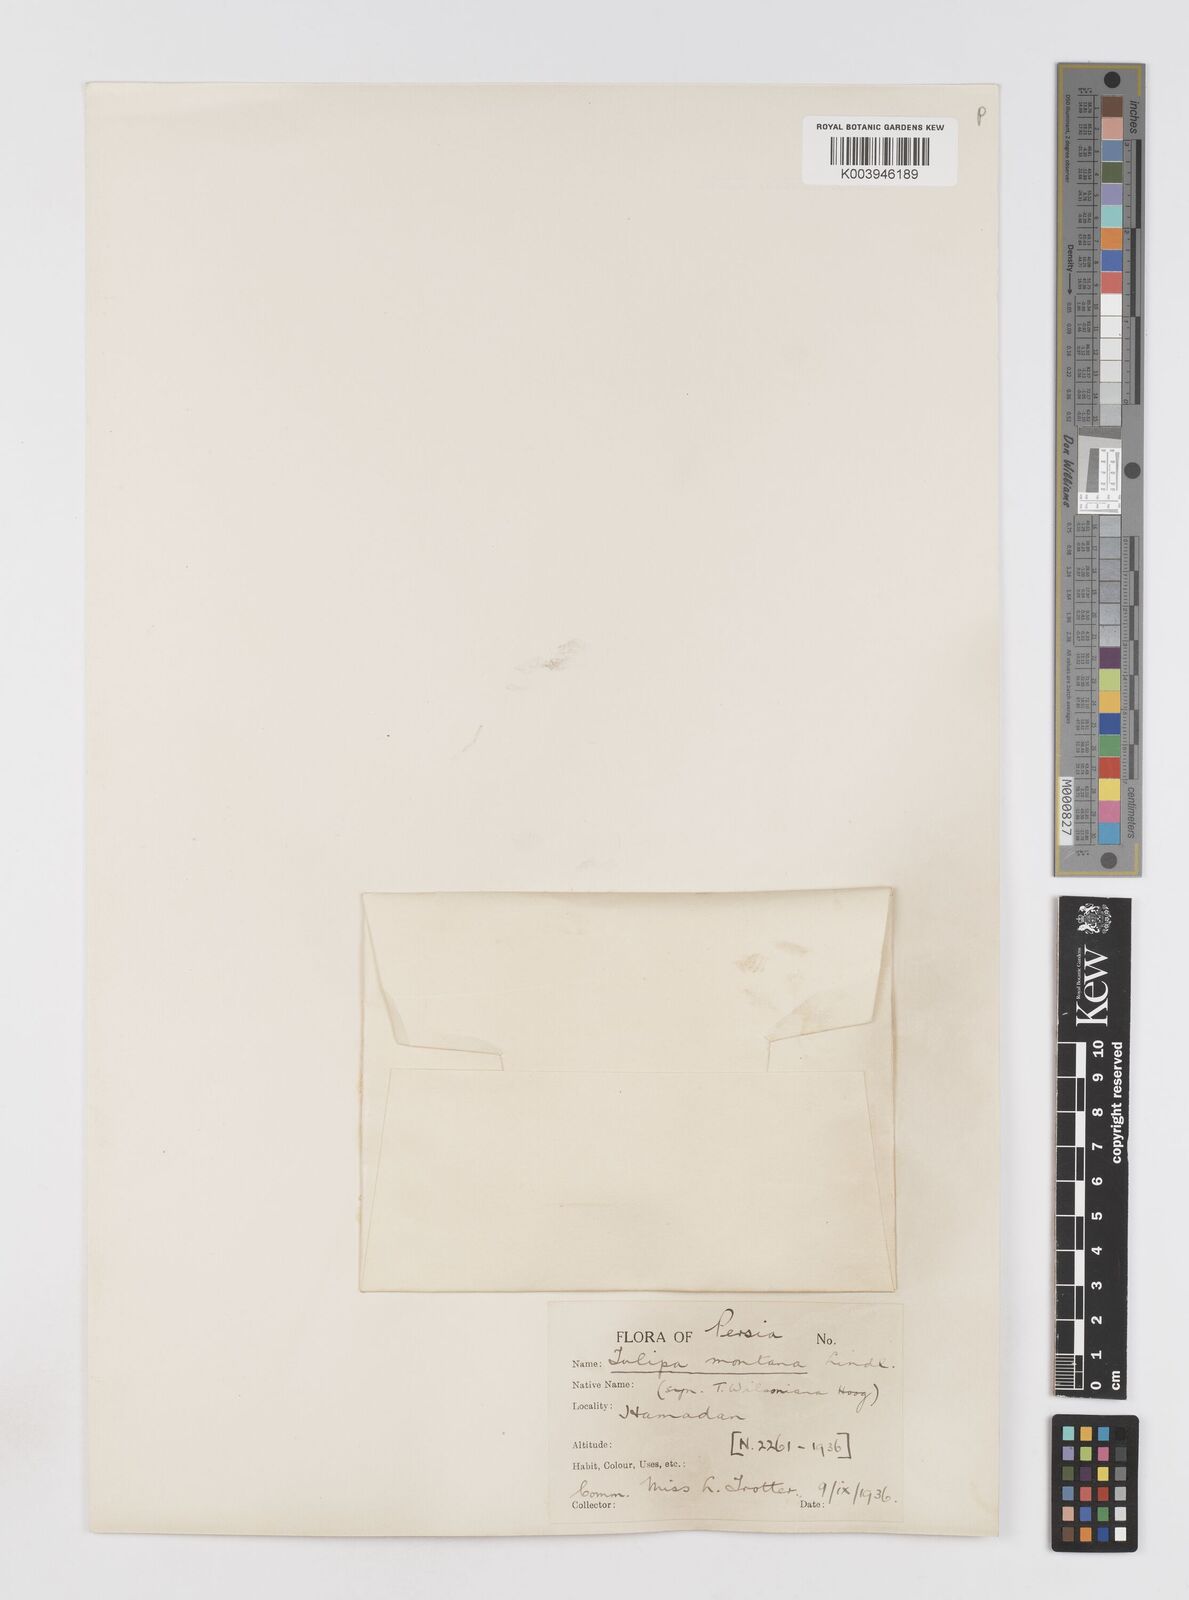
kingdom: Plantae
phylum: Tracheophyta
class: Liliopsida
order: Liliales
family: Liliaceae
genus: Tulipa
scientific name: Tulipa montana
